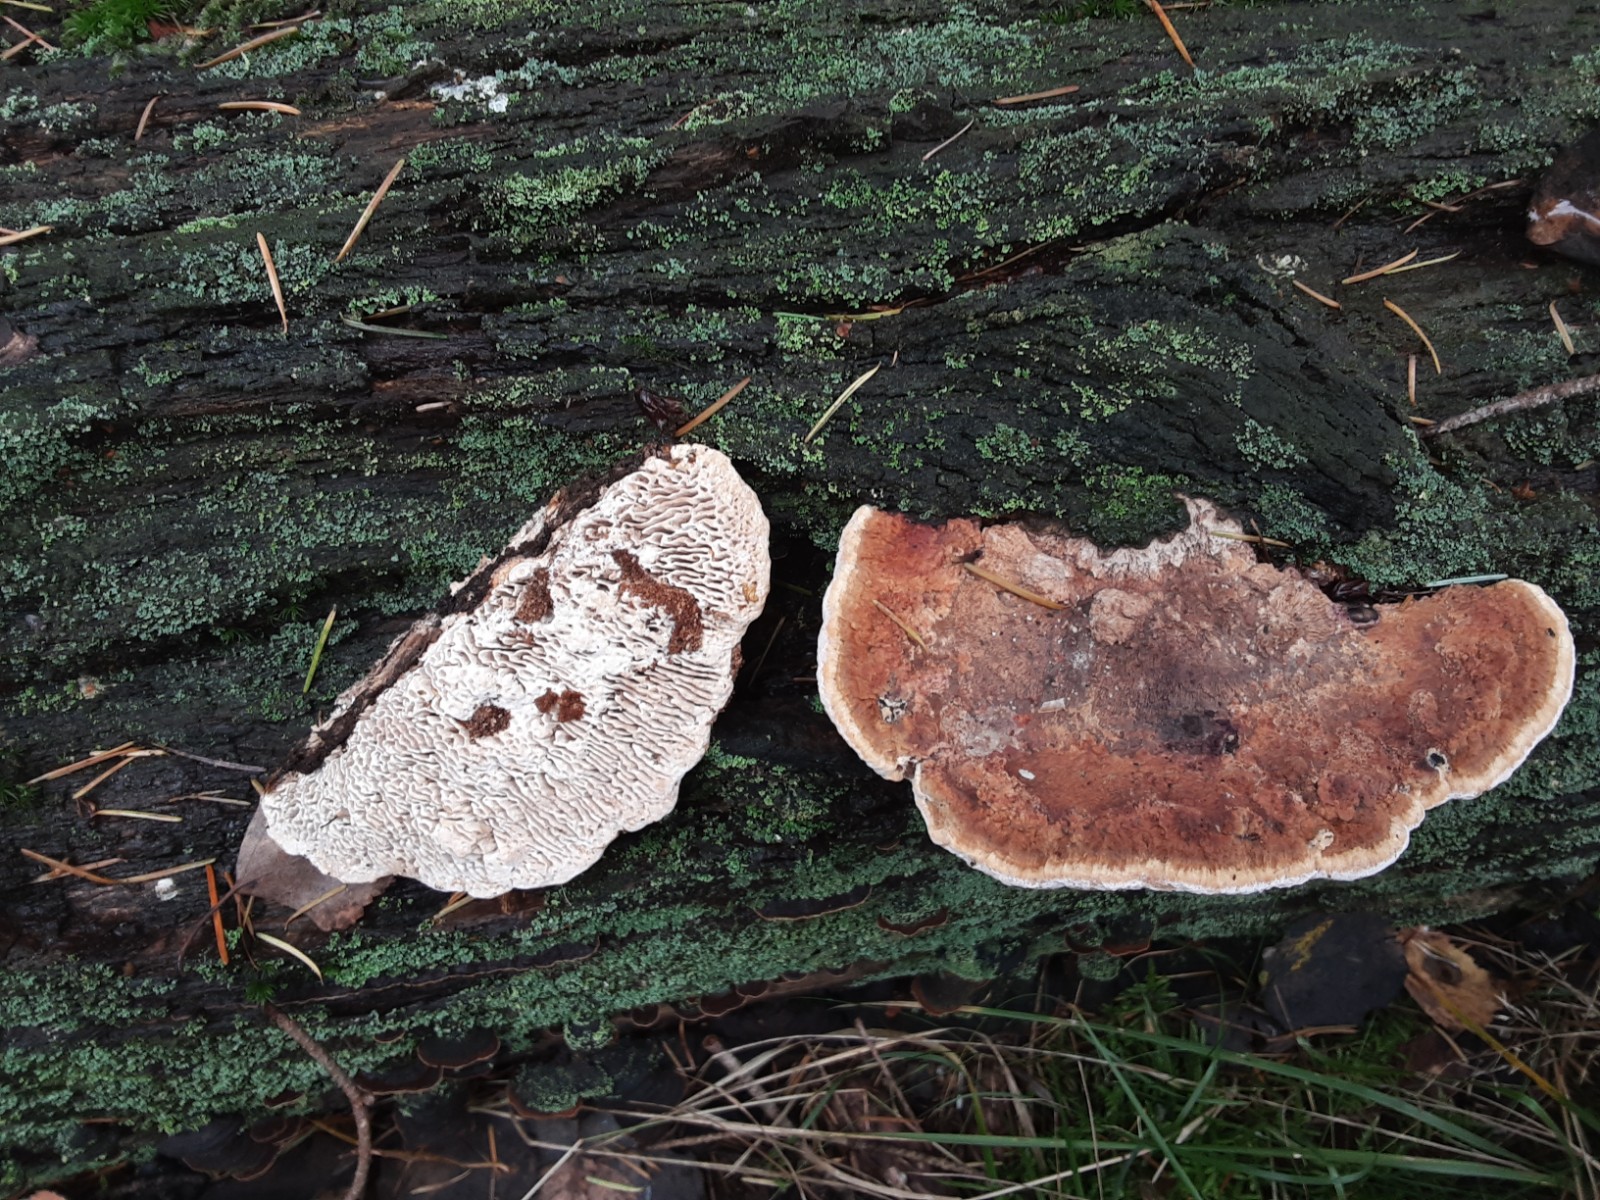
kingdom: Fungi
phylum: Basidiomycota
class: Agaricomycetes
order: Gloeophyllales
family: Gloeophyllaceae
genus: Gloeophyllum
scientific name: Gloeophyllum abietinum
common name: gran-korkhat
